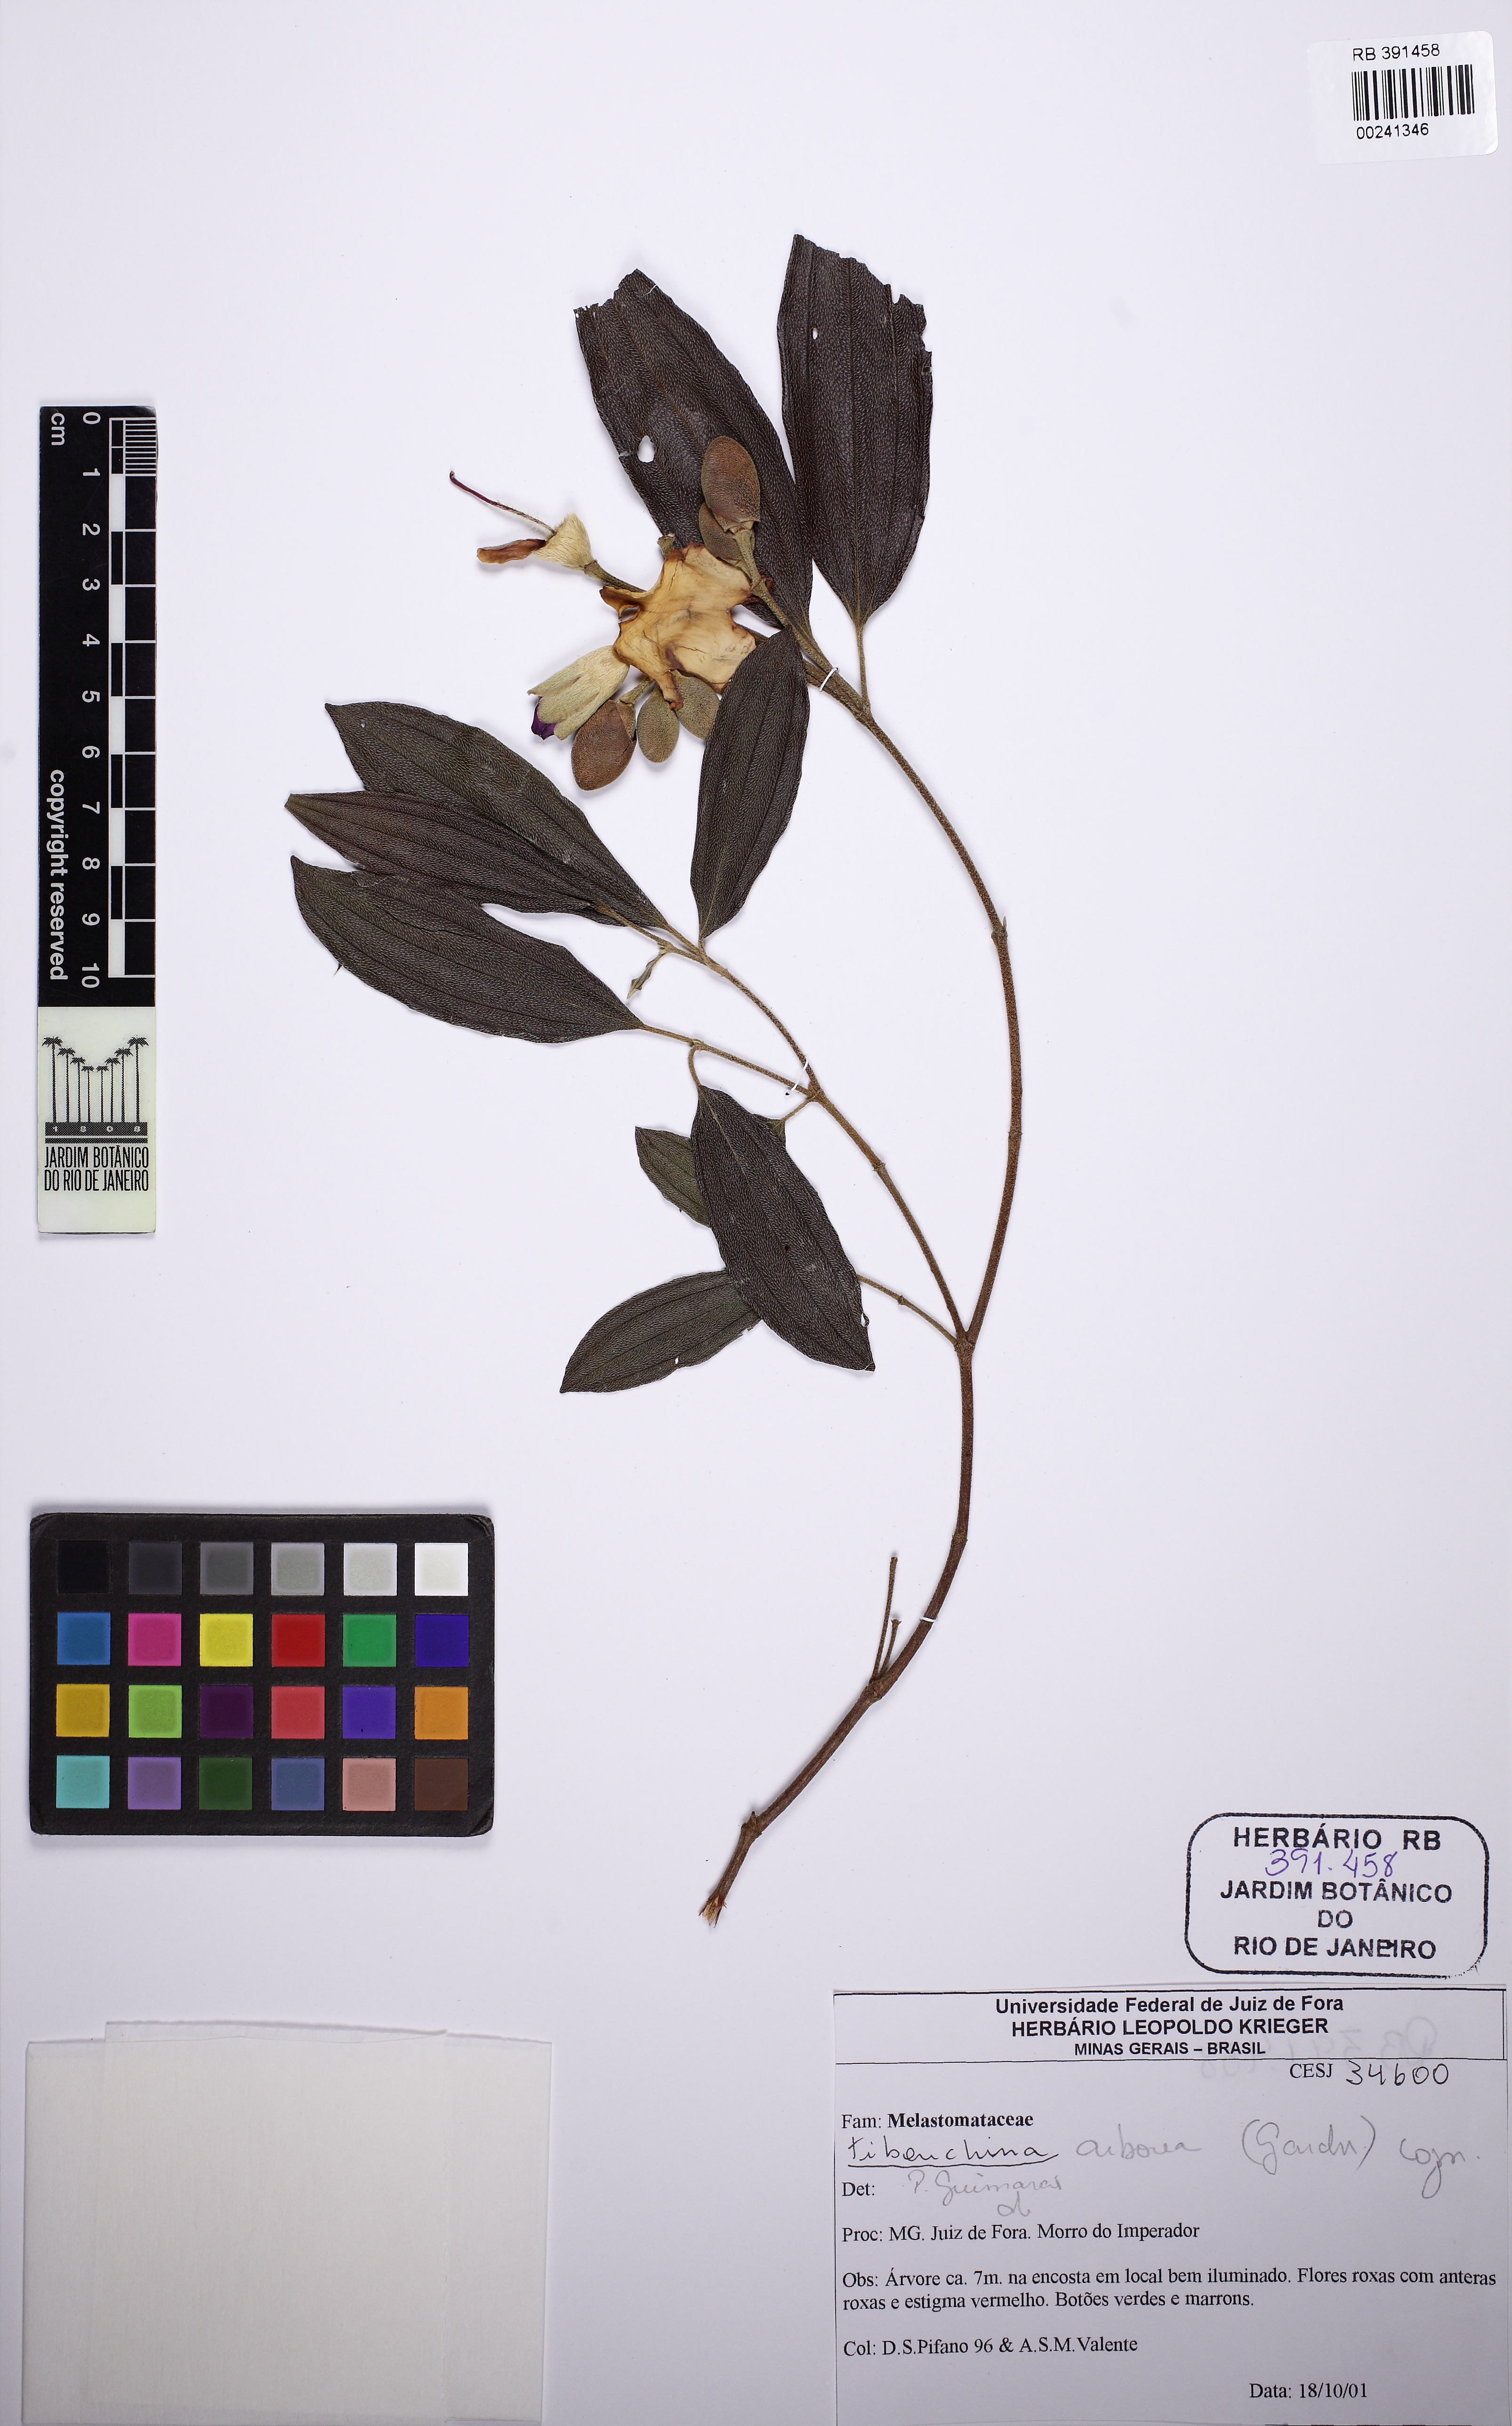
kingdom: Plantae
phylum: Tracheophyta
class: Magnoliopsida
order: Myrtales
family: Melastomataceae
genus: Pleroma
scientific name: Pleroma arboreum
